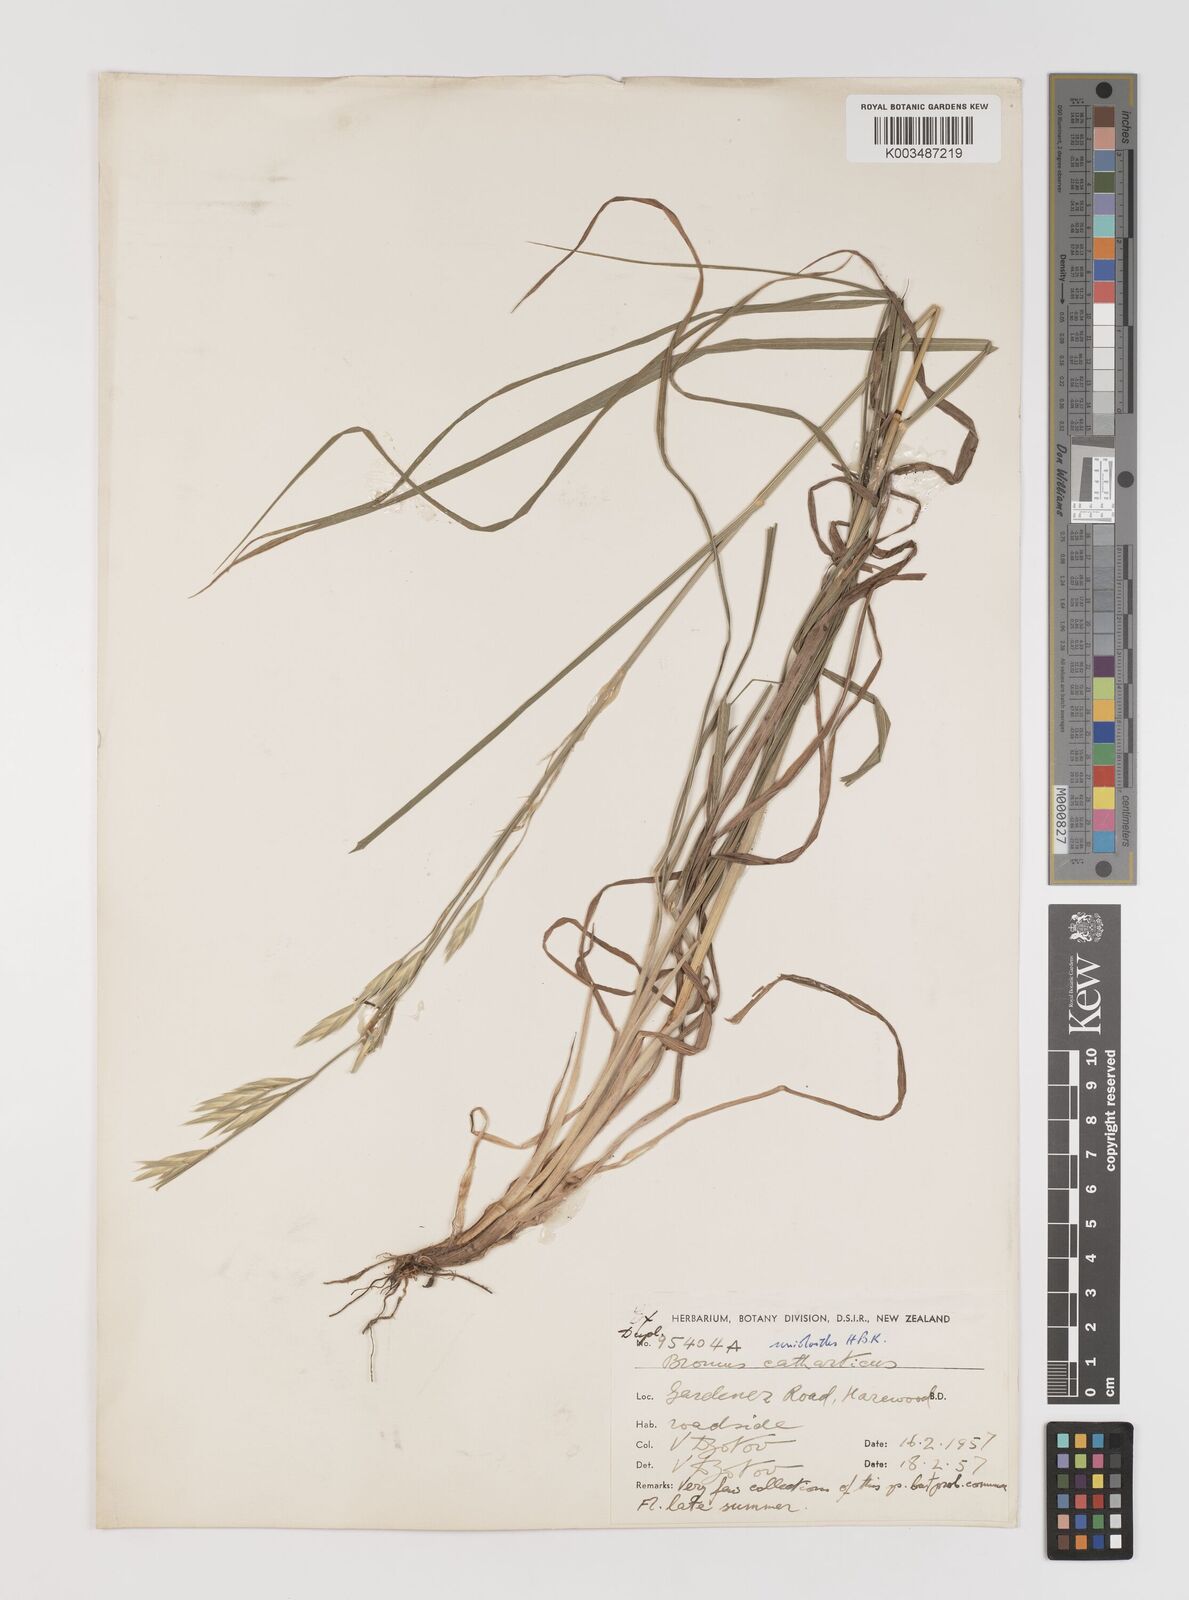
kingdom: Plantae
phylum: Tracheophyta
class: Liliopsida
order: Poales
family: Poaceae
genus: Bromus
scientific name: Bromus catharticus
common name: Rescuegrass
